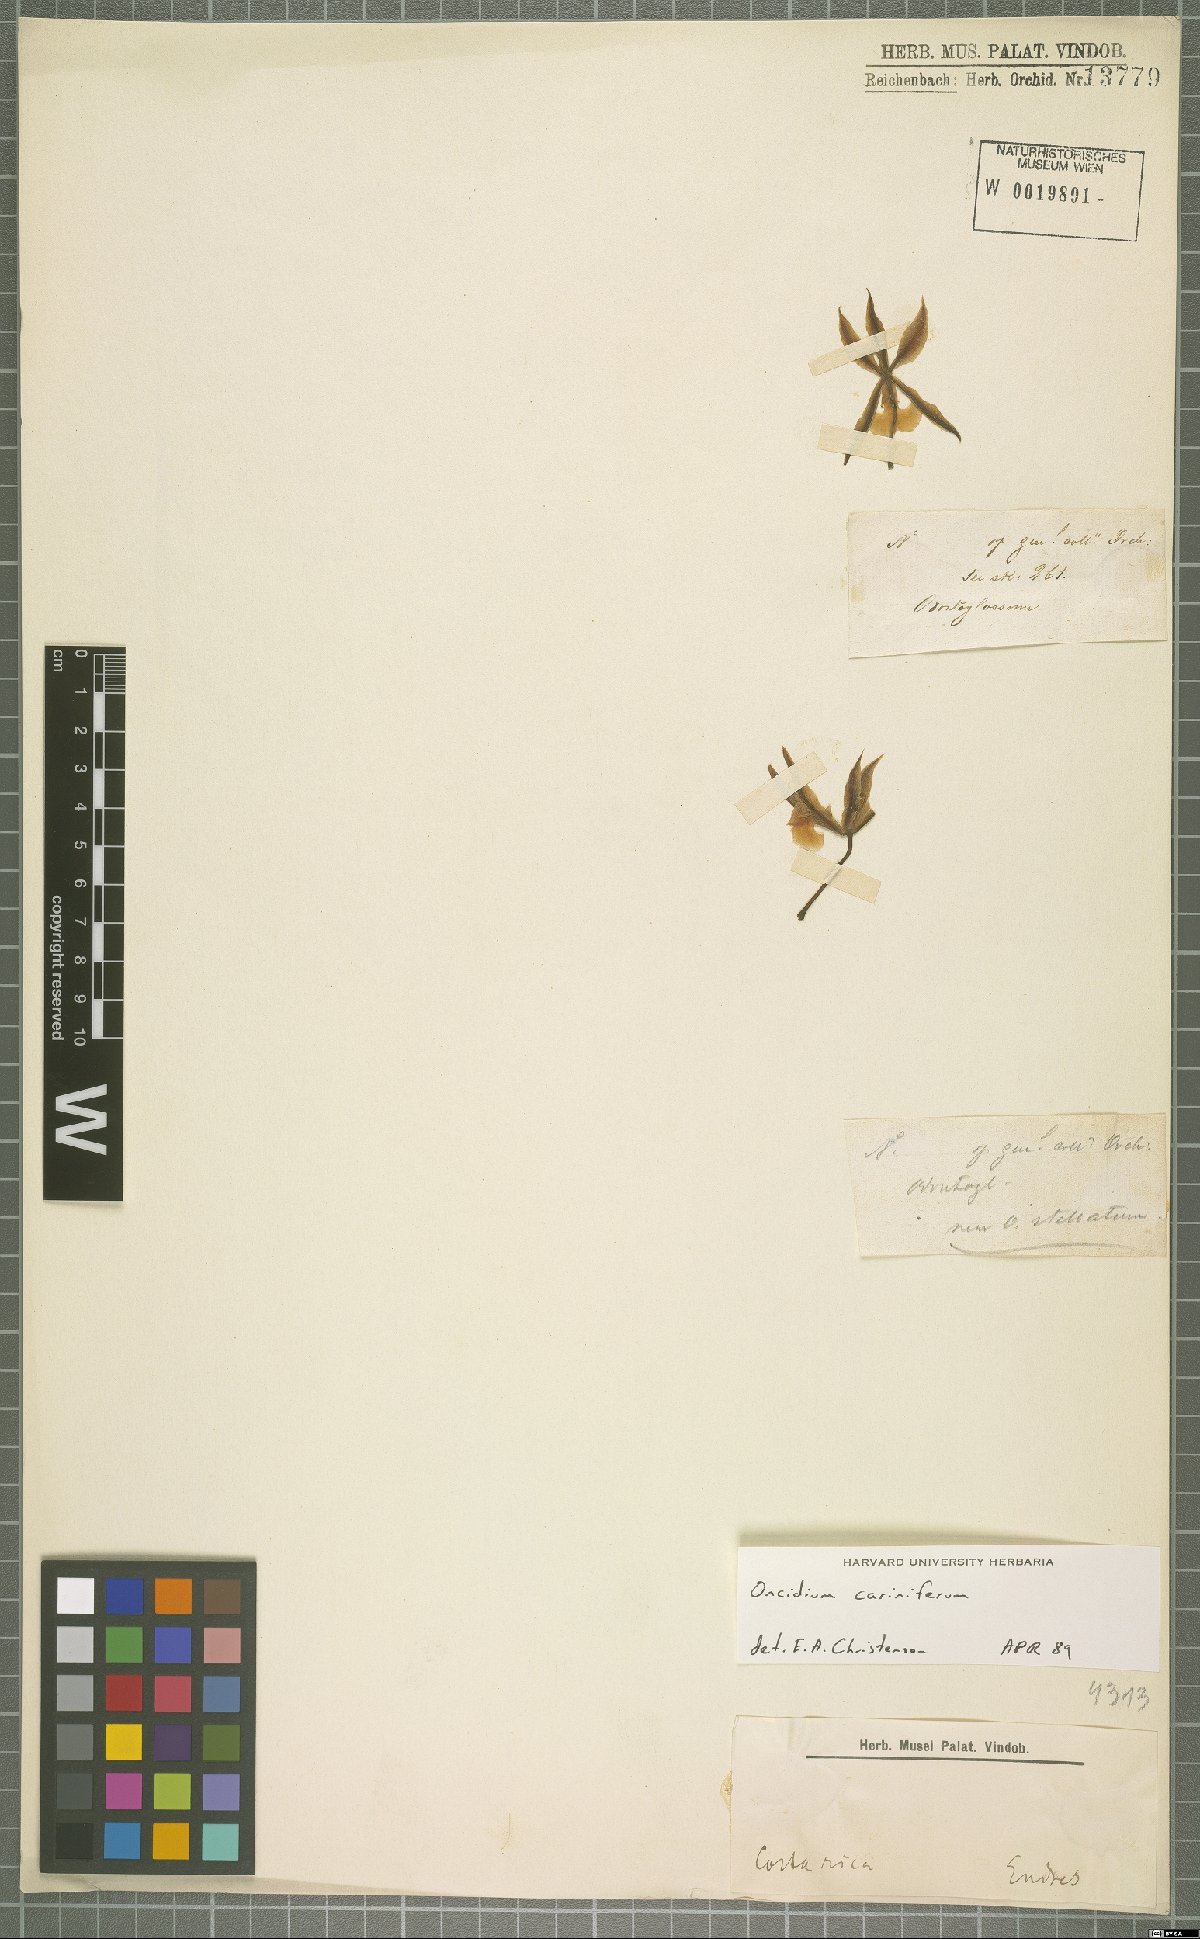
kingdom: Plantae
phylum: Tracheophyta
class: Liliopsida
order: Asparagales
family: Orchidaceae
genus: Oncidium
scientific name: Oncidium cariniferum
